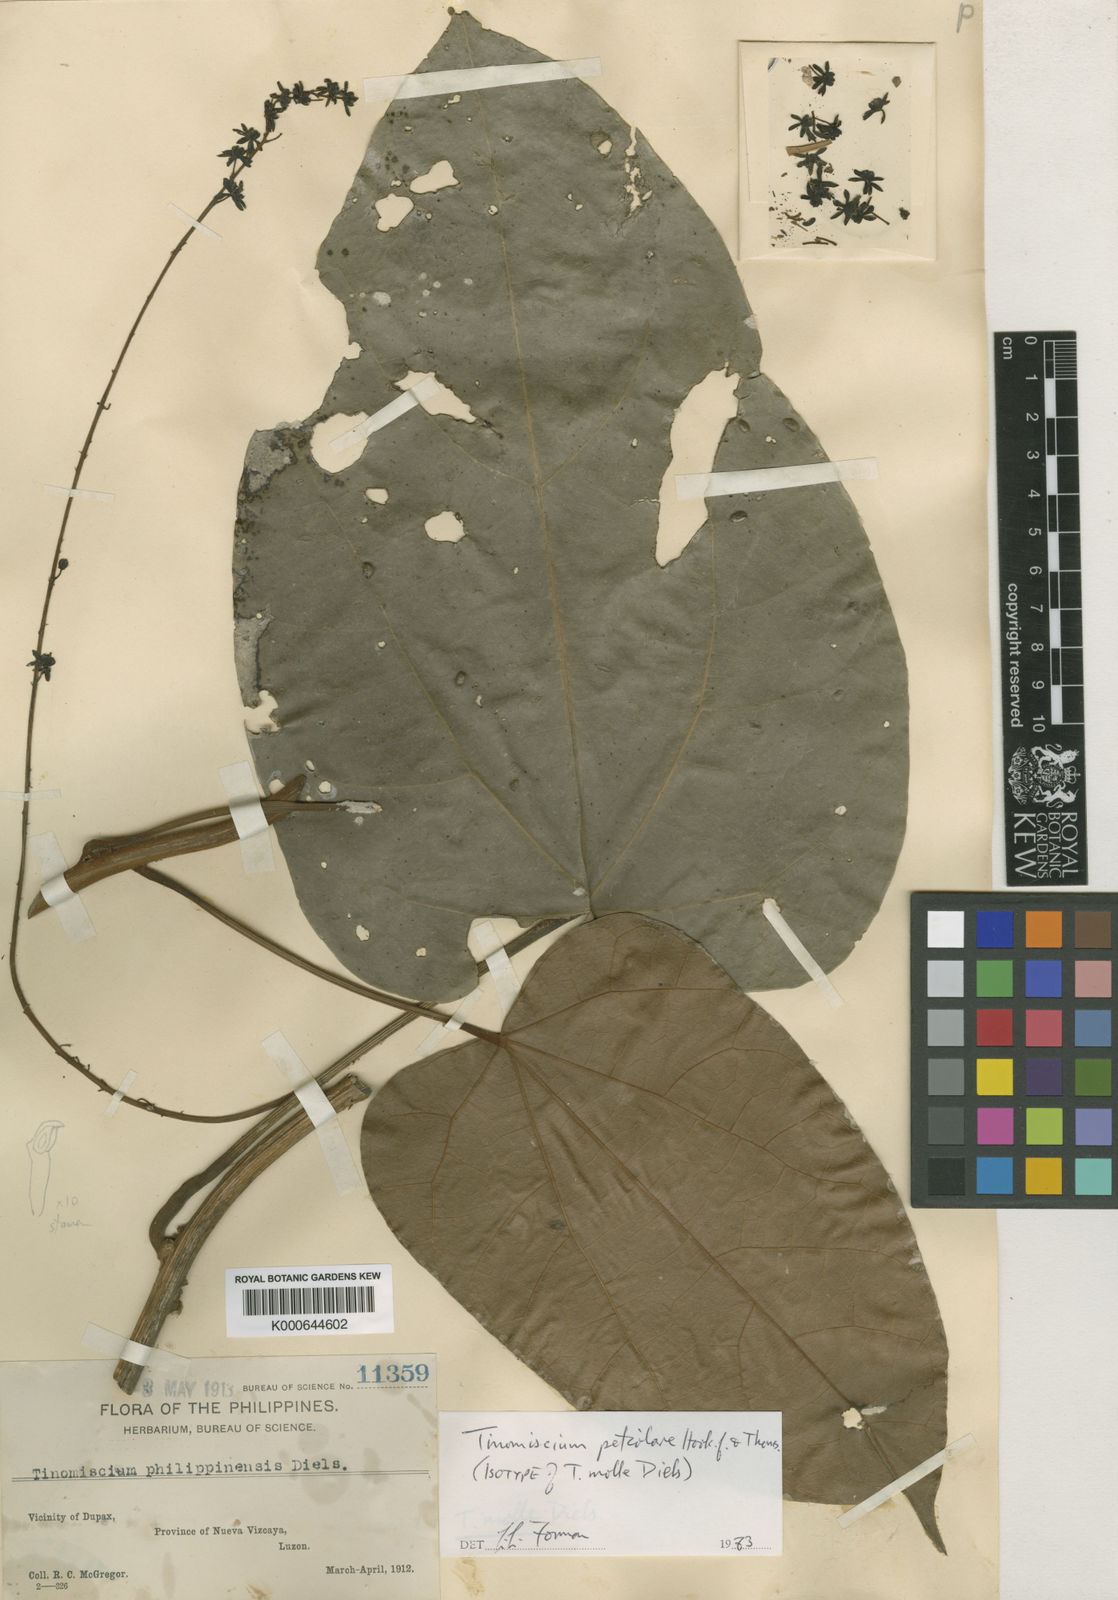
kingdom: Plantae
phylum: Tracheophyta
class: Magnoliopsida
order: Ranunculales
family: Menispermaceae
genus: Tinomiscium
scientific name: Tinomiscium petiolare
